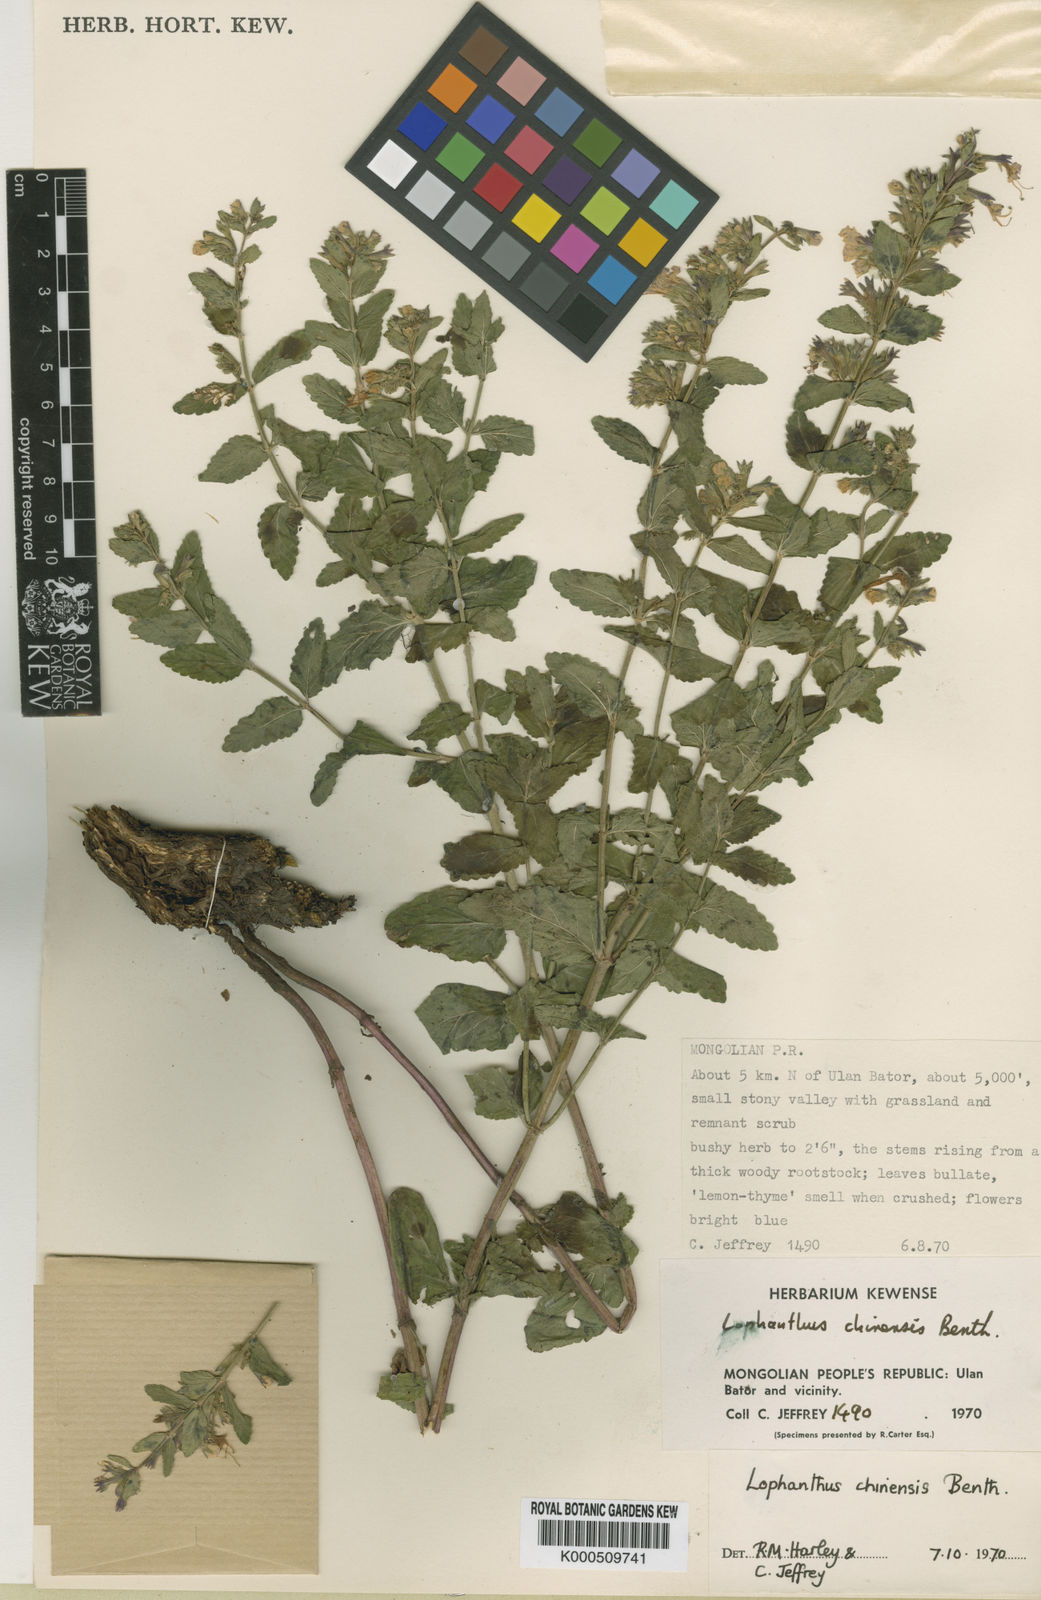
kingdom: Plantae
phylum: Tracheophyta
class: Magnoliopsida
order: Lamiales
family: Lamiaceae
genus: Nepeta
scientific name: Nepeta lophanthus
